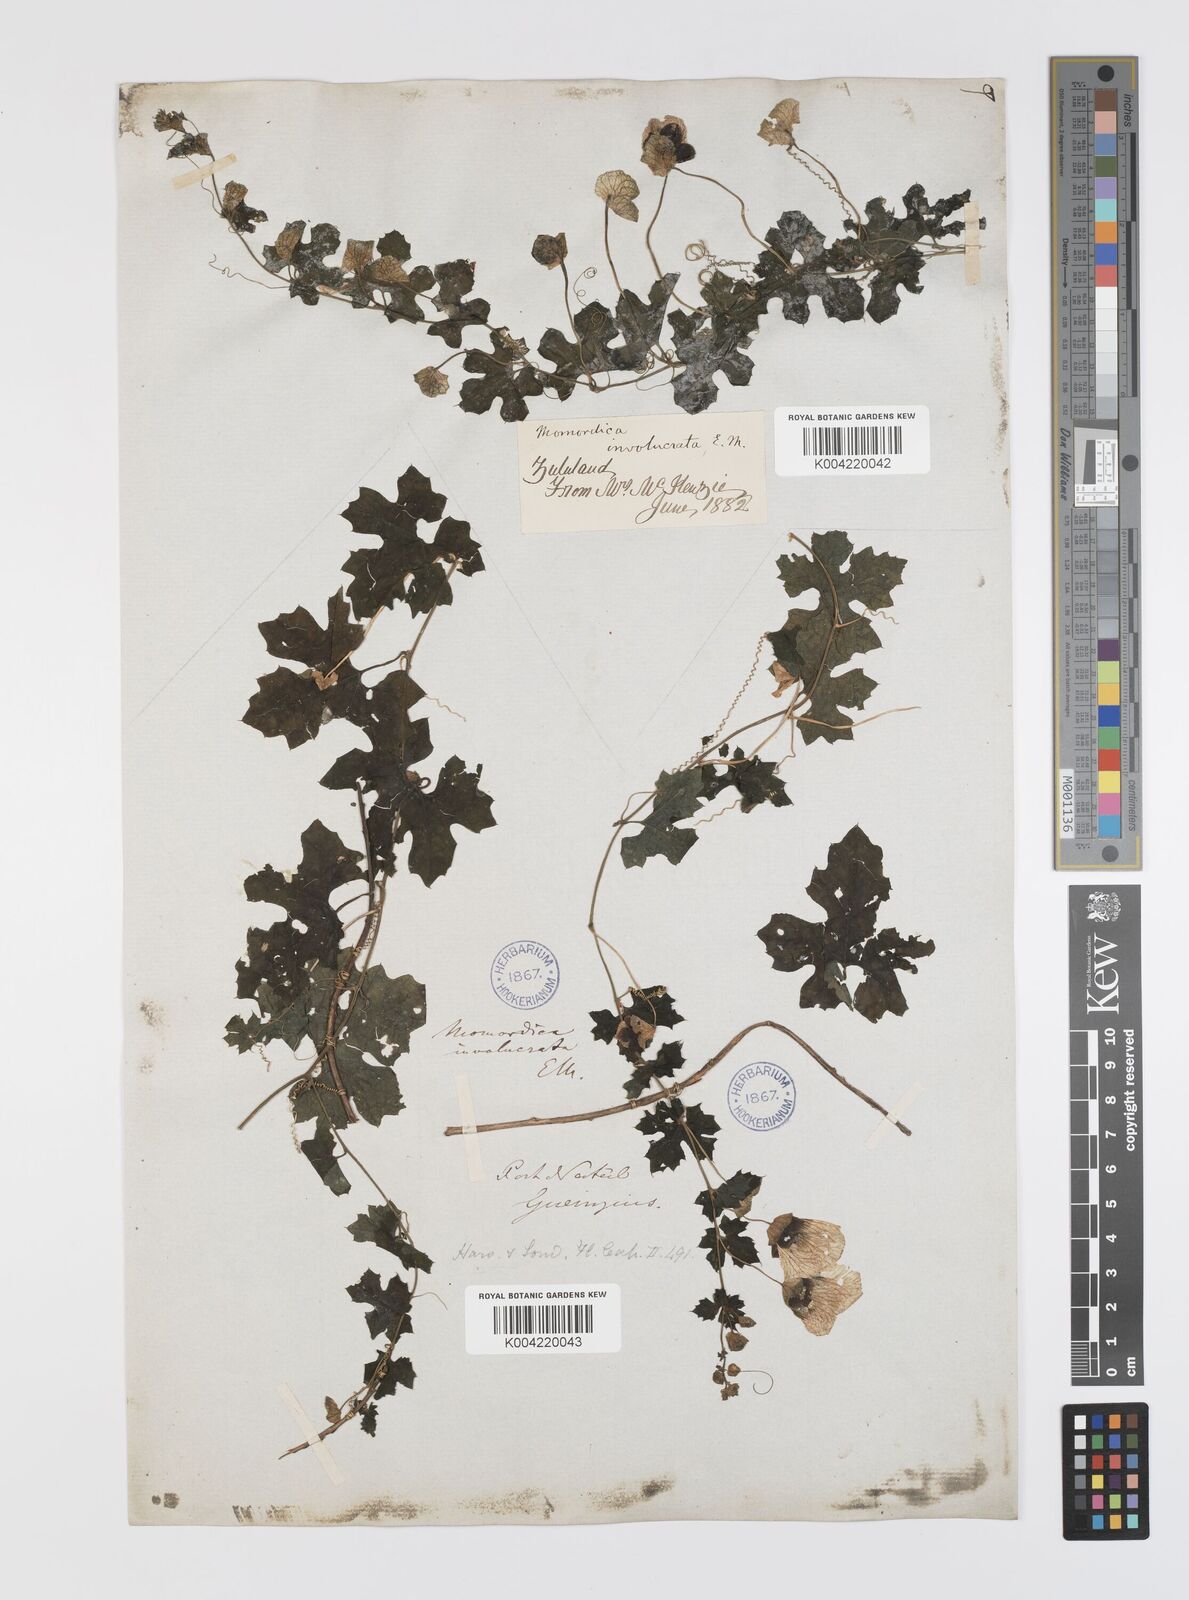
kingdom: Plantae
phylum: Tracheophyta
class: Magnoliopsida
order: Cucurbitales
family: Cucurbitaceae
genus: Momordica
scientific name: Momordica balsamina
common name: Southern balsampear
